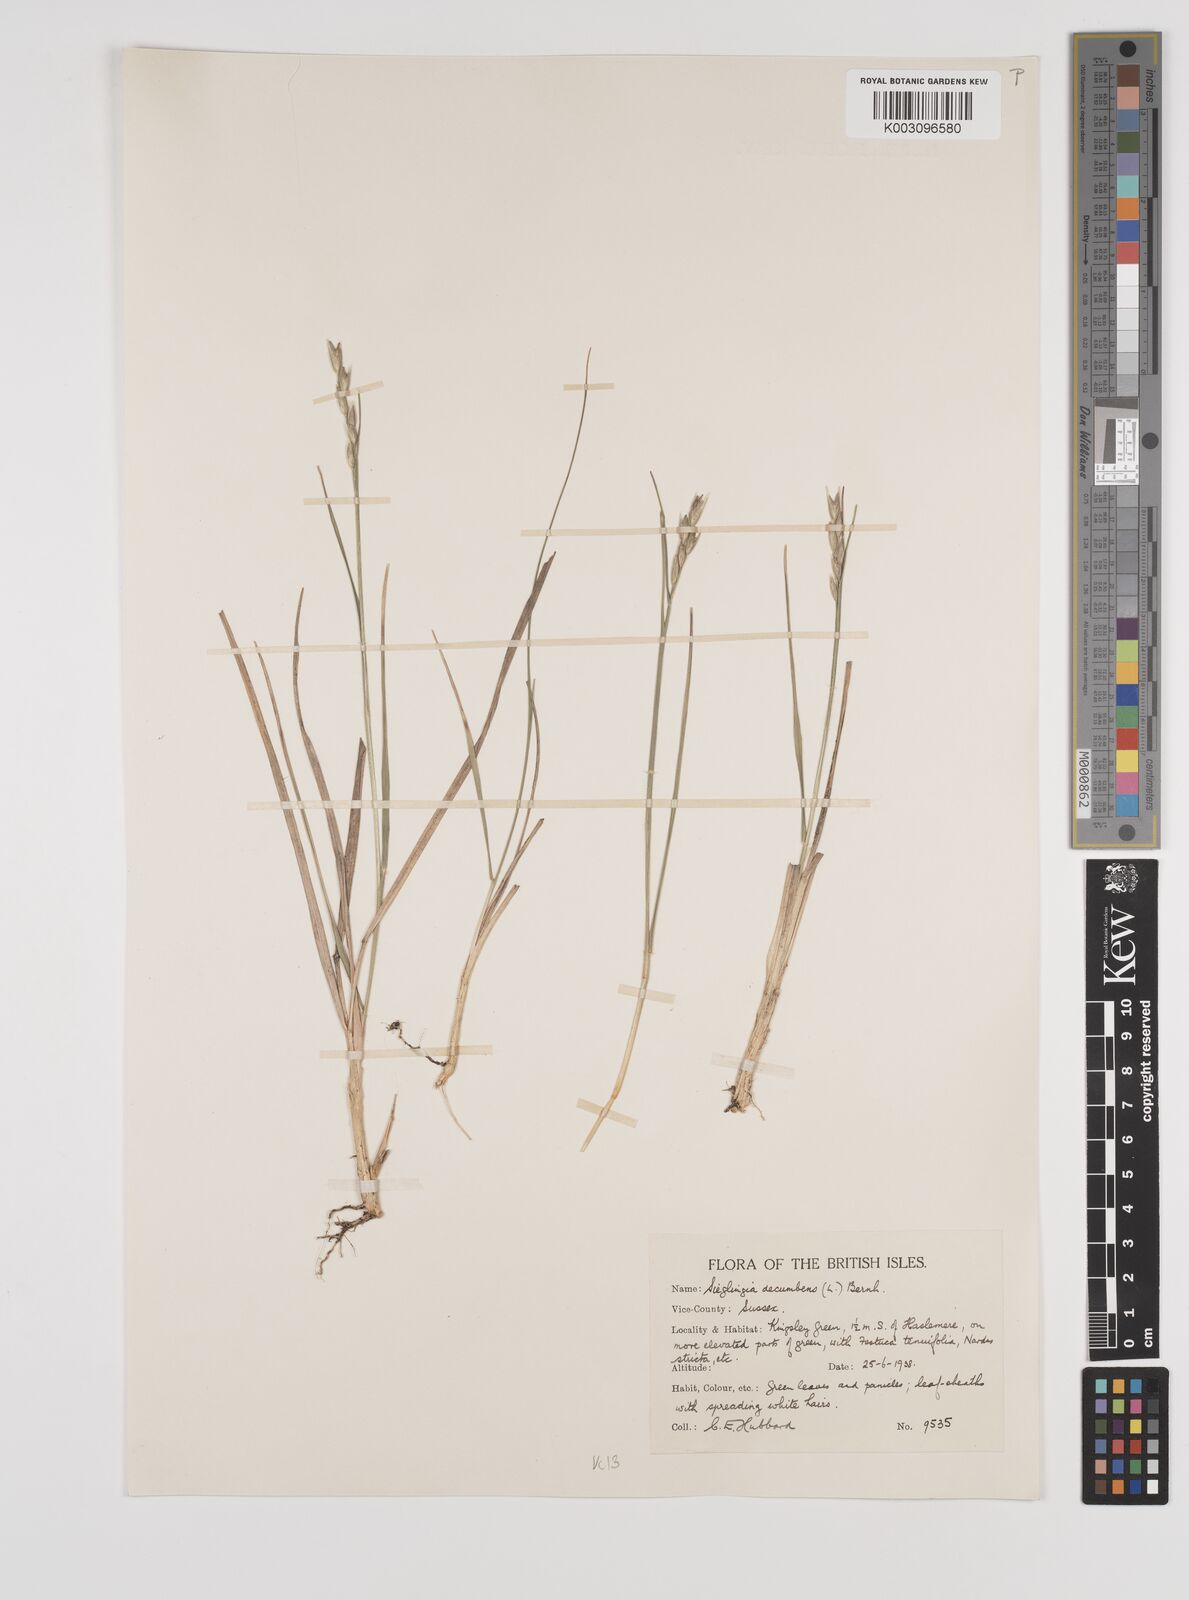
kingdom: Plantae
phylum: Tracheophyta
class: Liliopsida
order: Poales
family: Poaceae
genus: Danthonia
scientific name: Danthonia decumbens
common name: Common heathgrass
